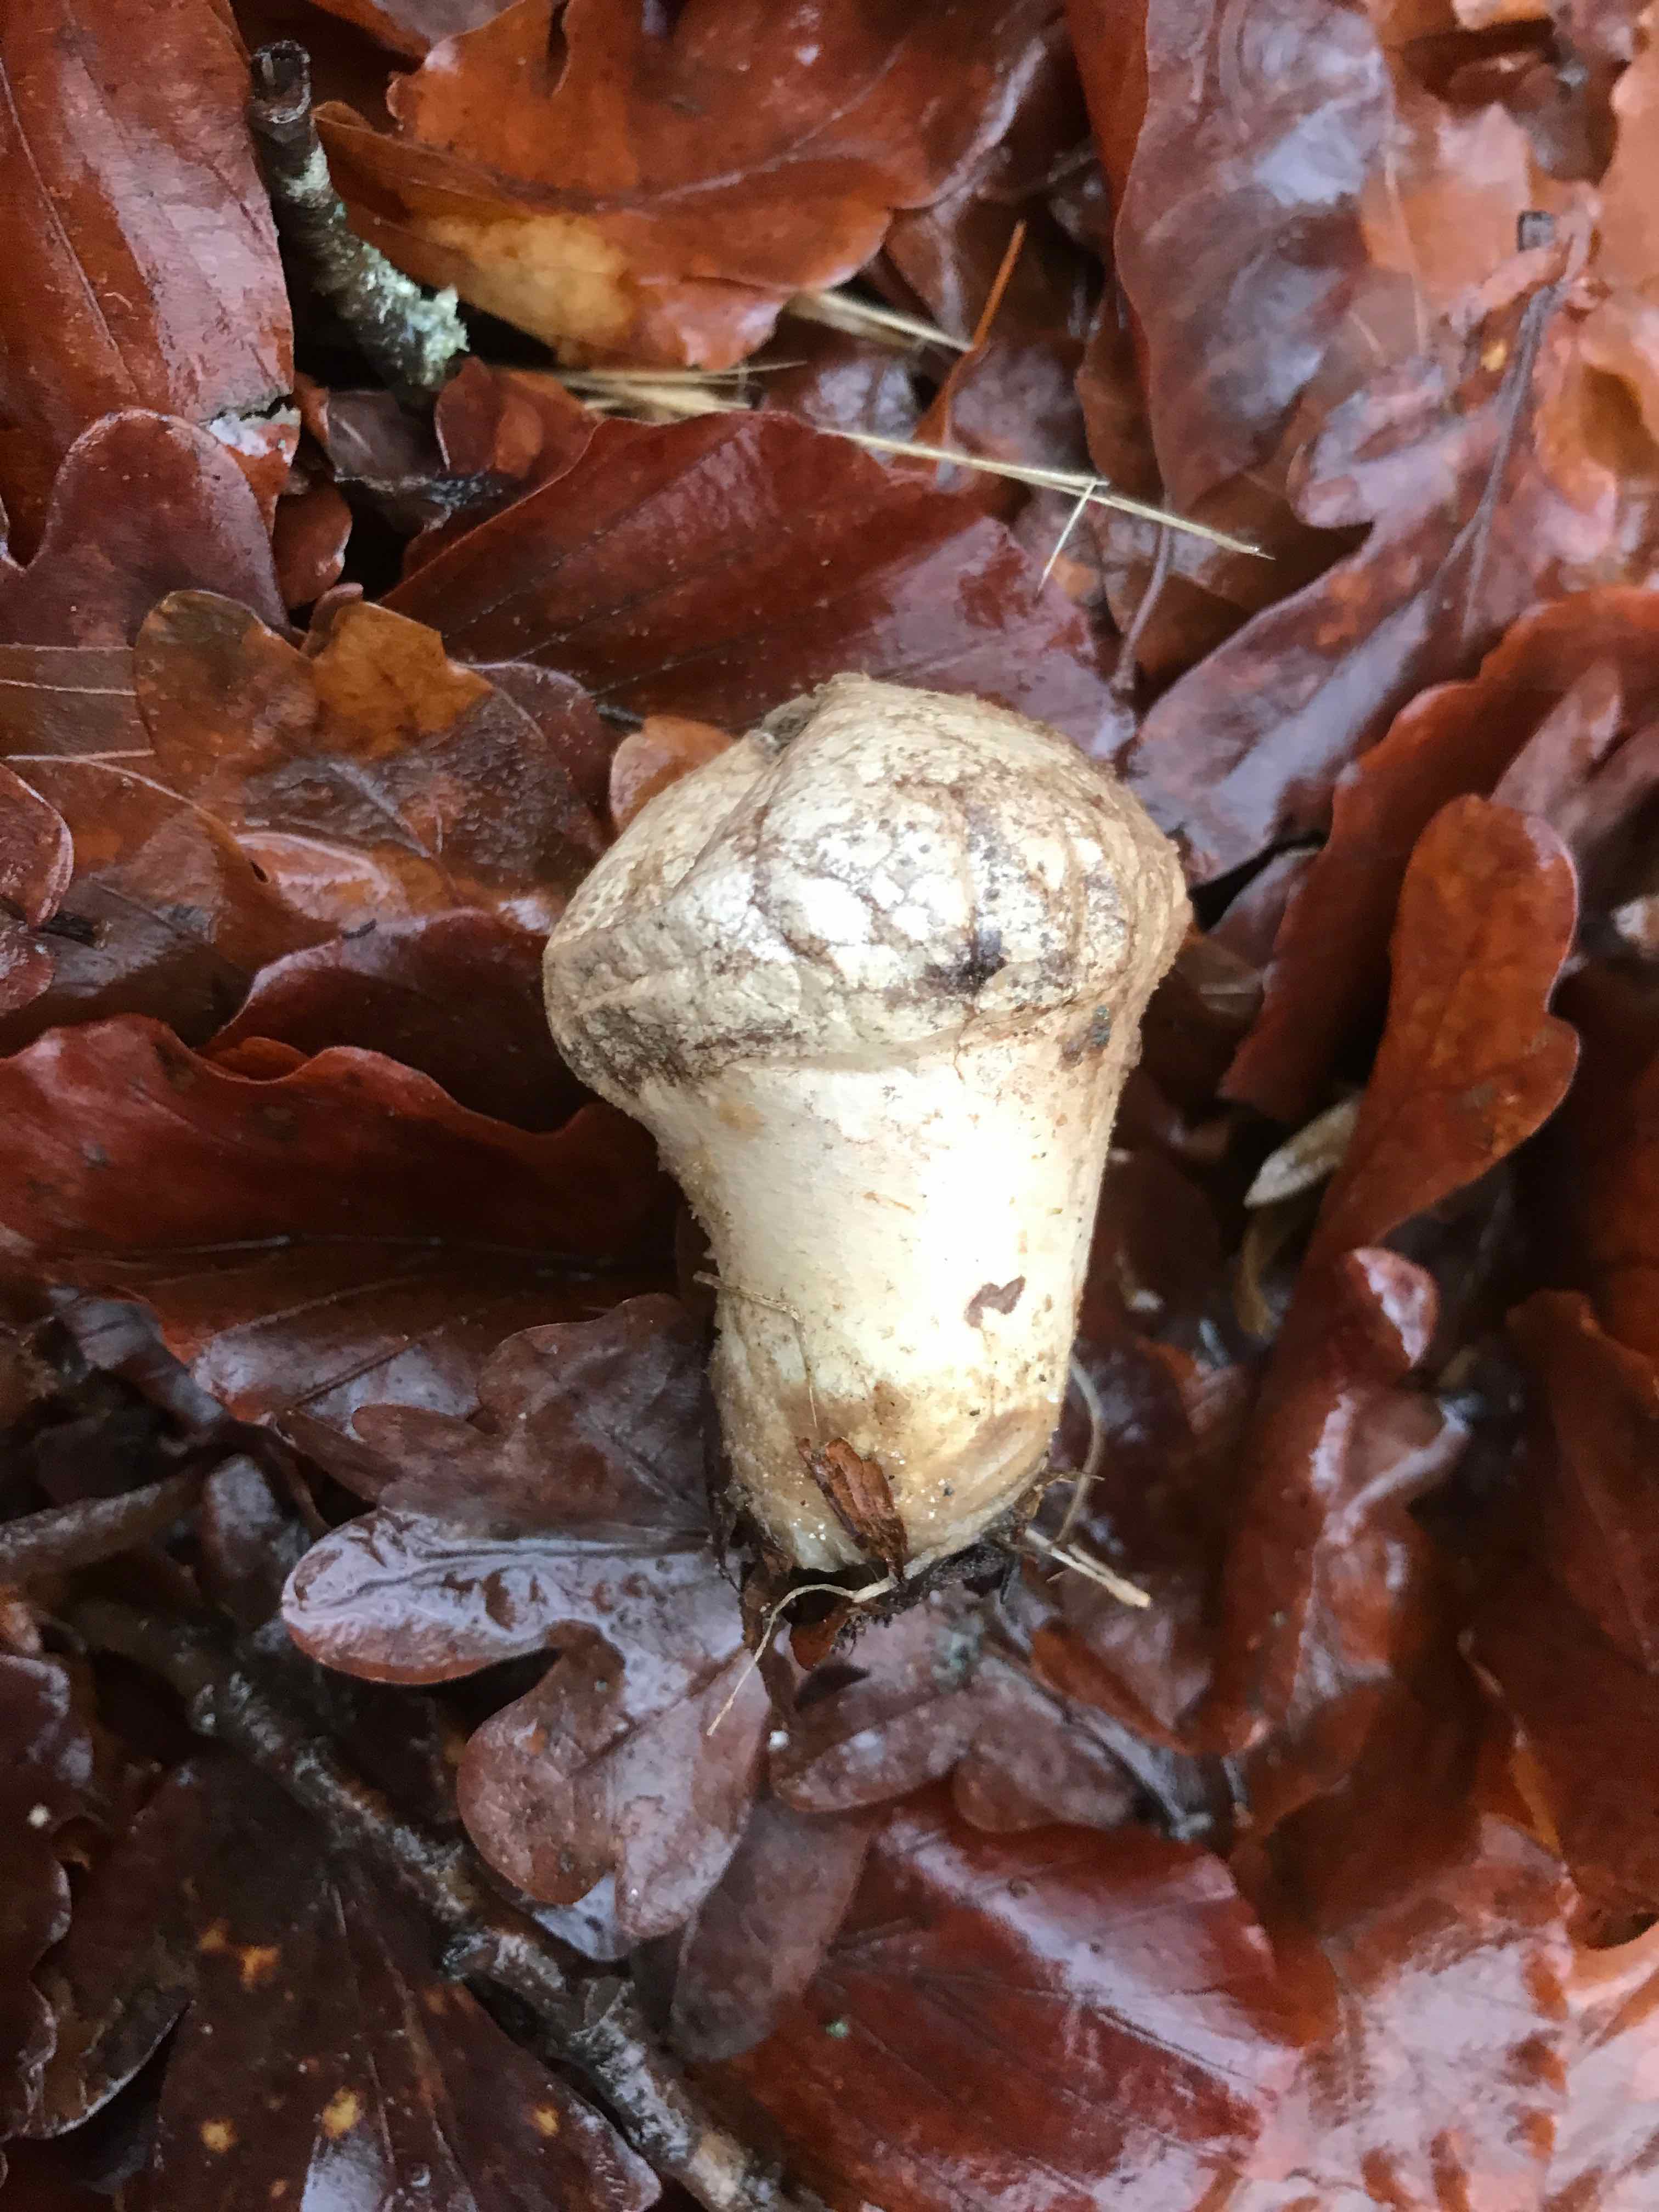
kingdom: Fungi
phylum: Basidiomycota
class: Agaricomycetes
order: Agaricales
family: Lycoperdaceae
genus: Lycoperdon
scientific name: Lycoperdon perlatum
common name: krystal-støvbold
